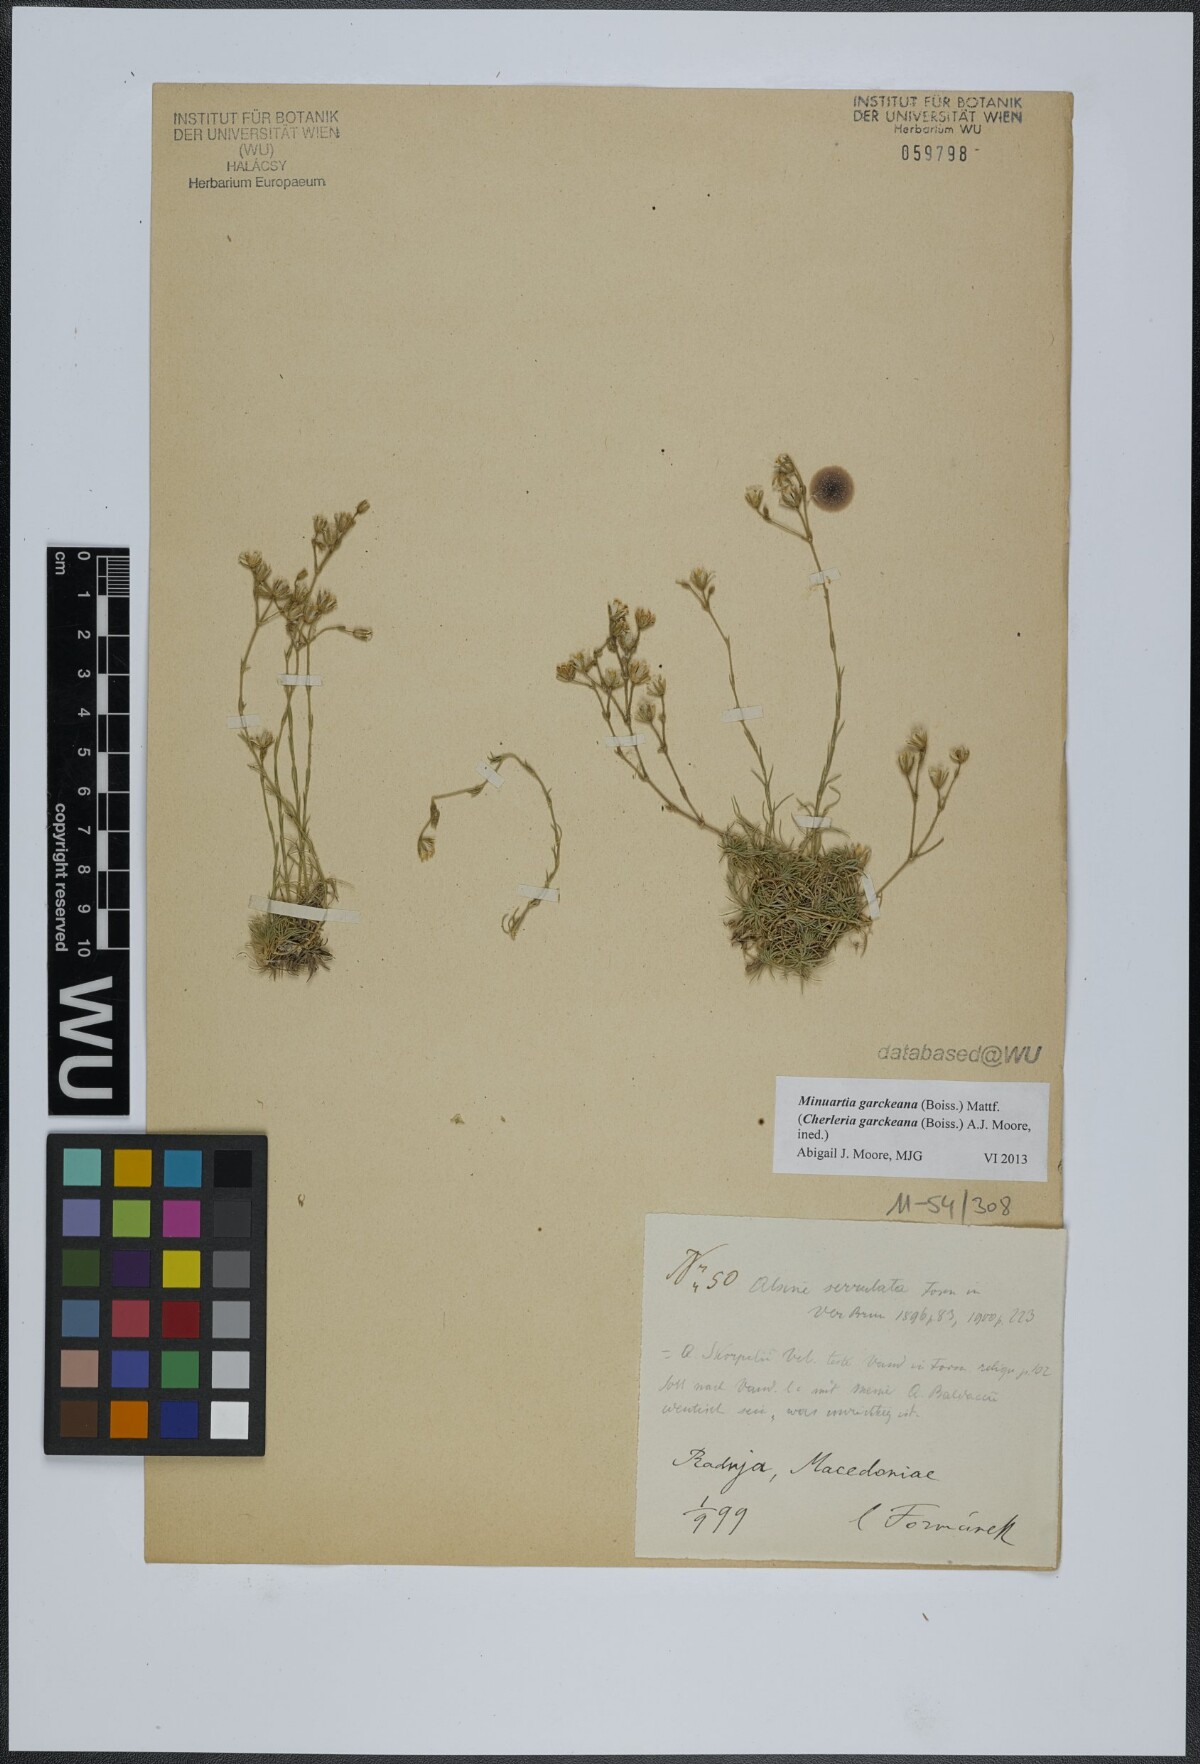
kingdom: Plantae
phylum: Tracheophyta
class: Magnoliopsida
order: Caryophyllales
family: Caryophyllaceae
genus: Cherleria
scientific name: Cherleria garckeana
